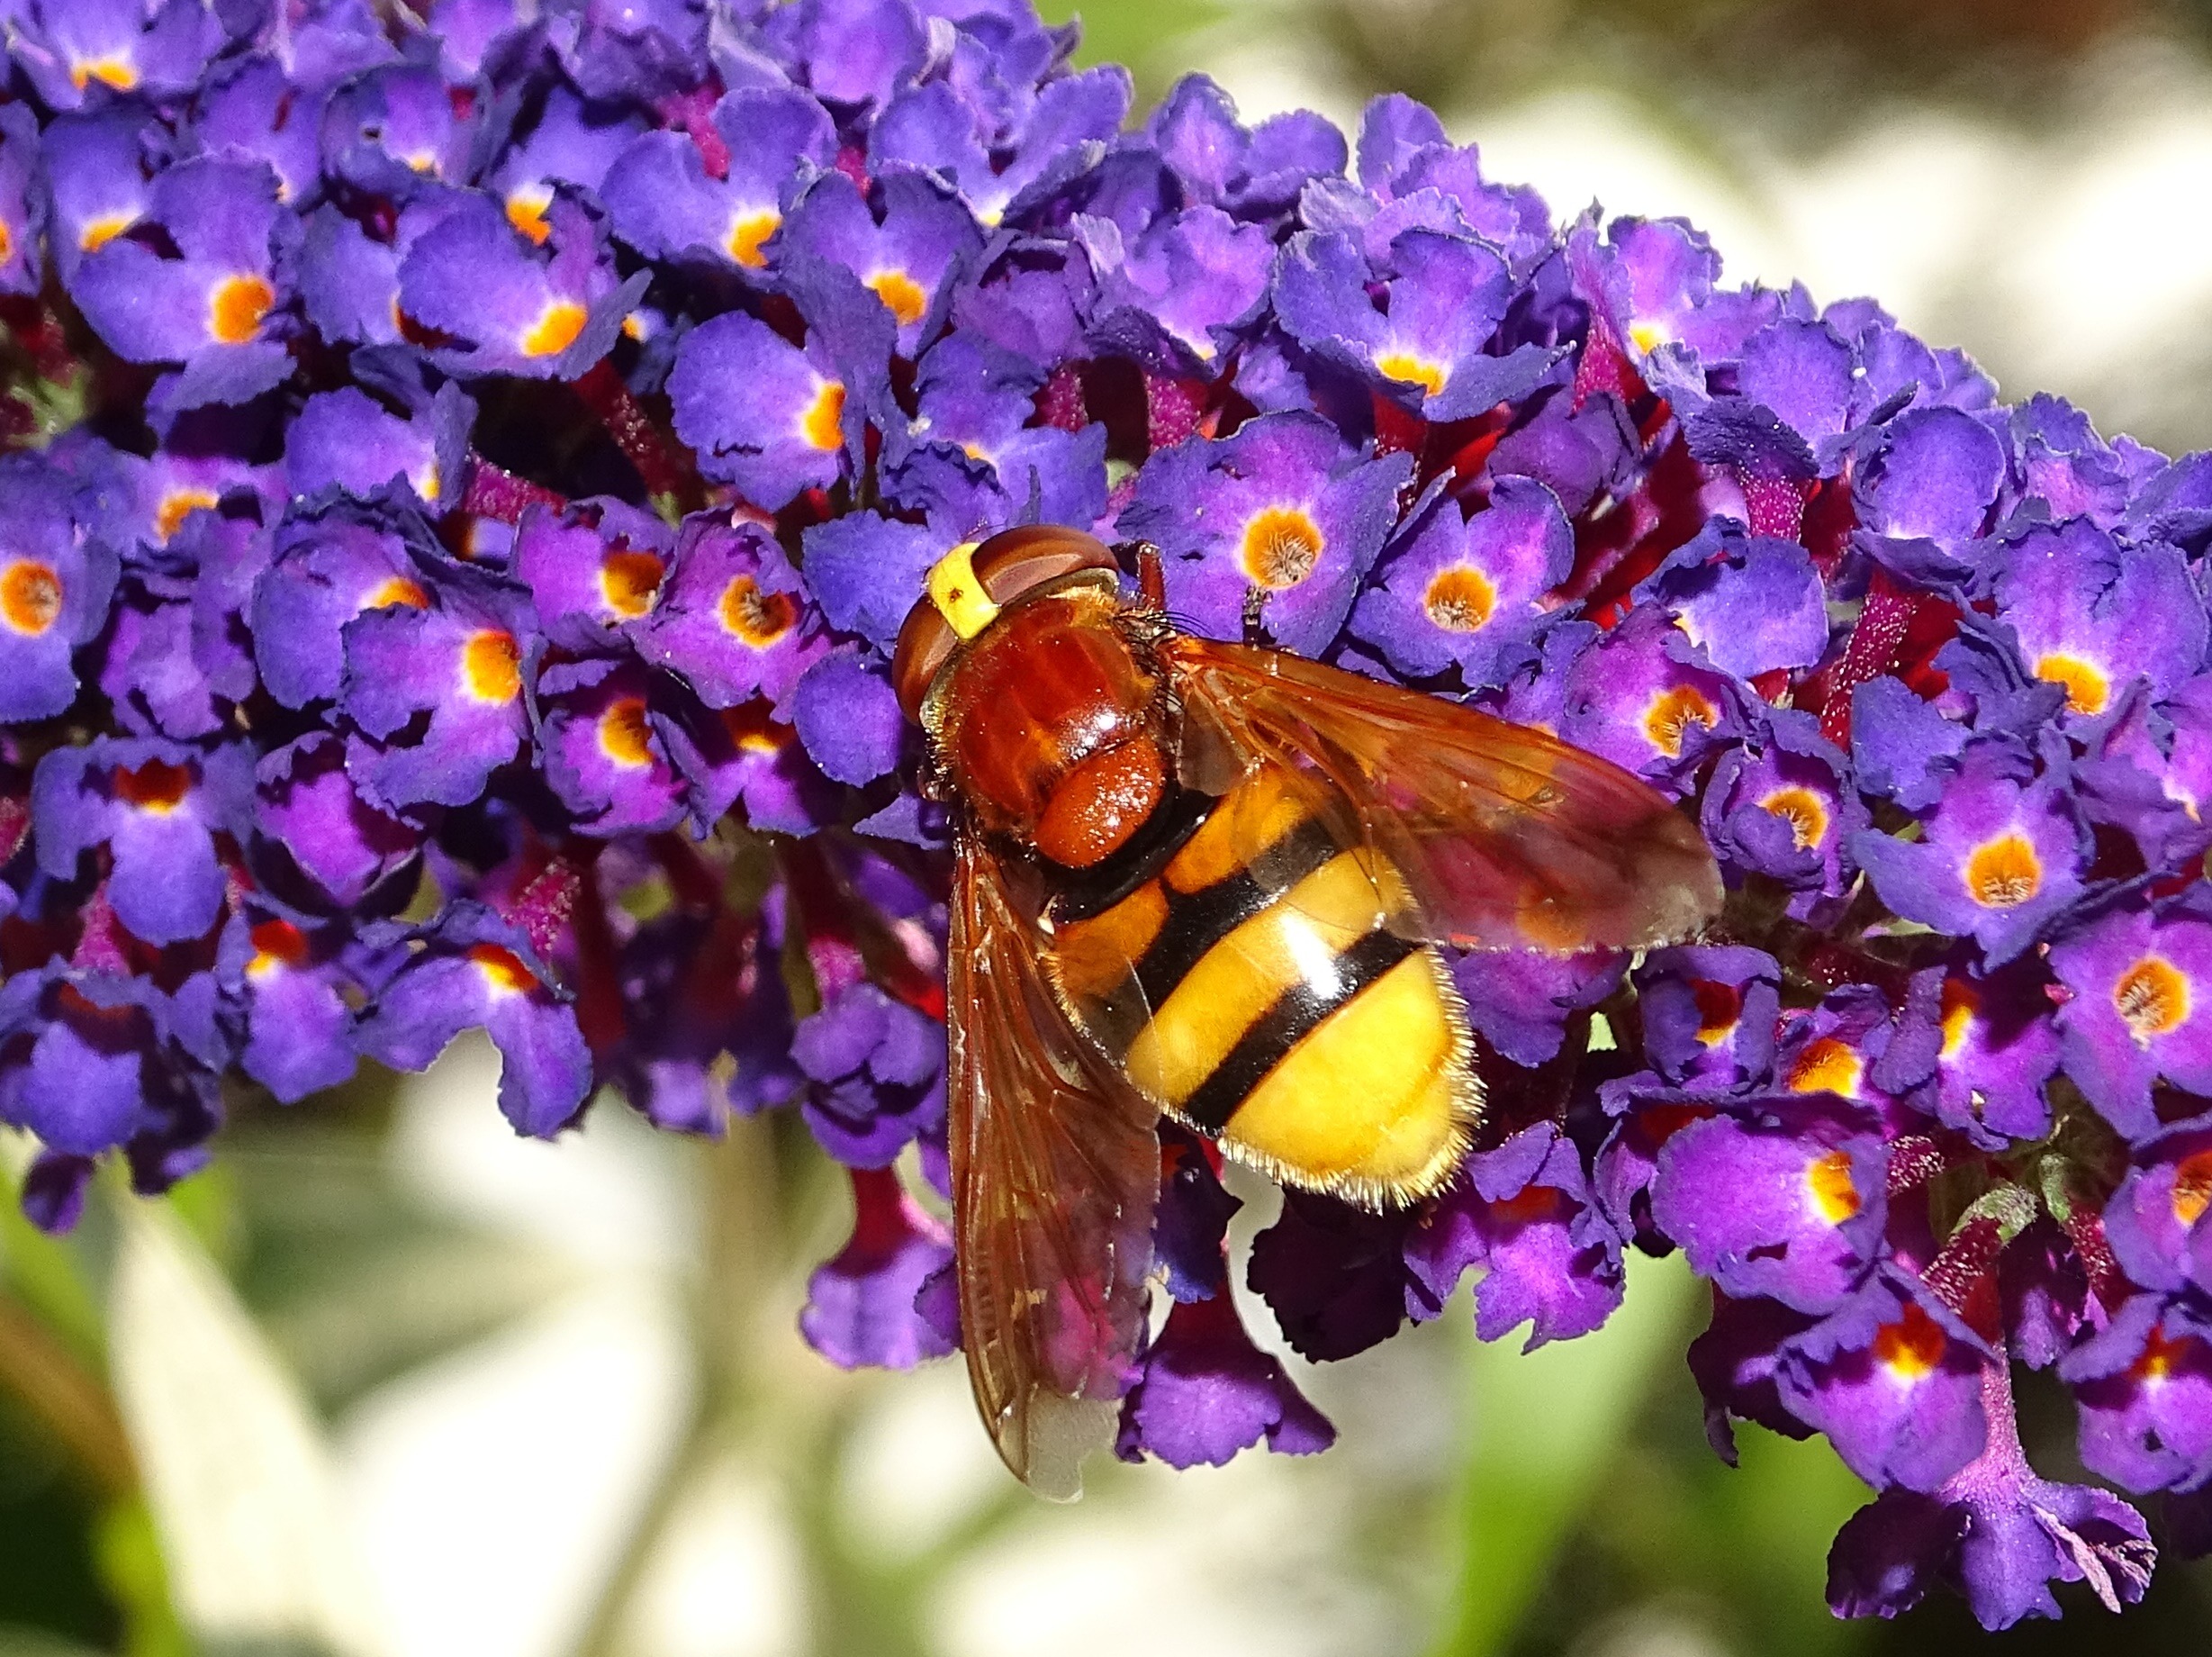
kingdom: Animalia
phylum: Arthropoda
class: Insecta
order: Diptera
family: Syrphidae
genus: Volucella
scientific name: Volucella zonaria
